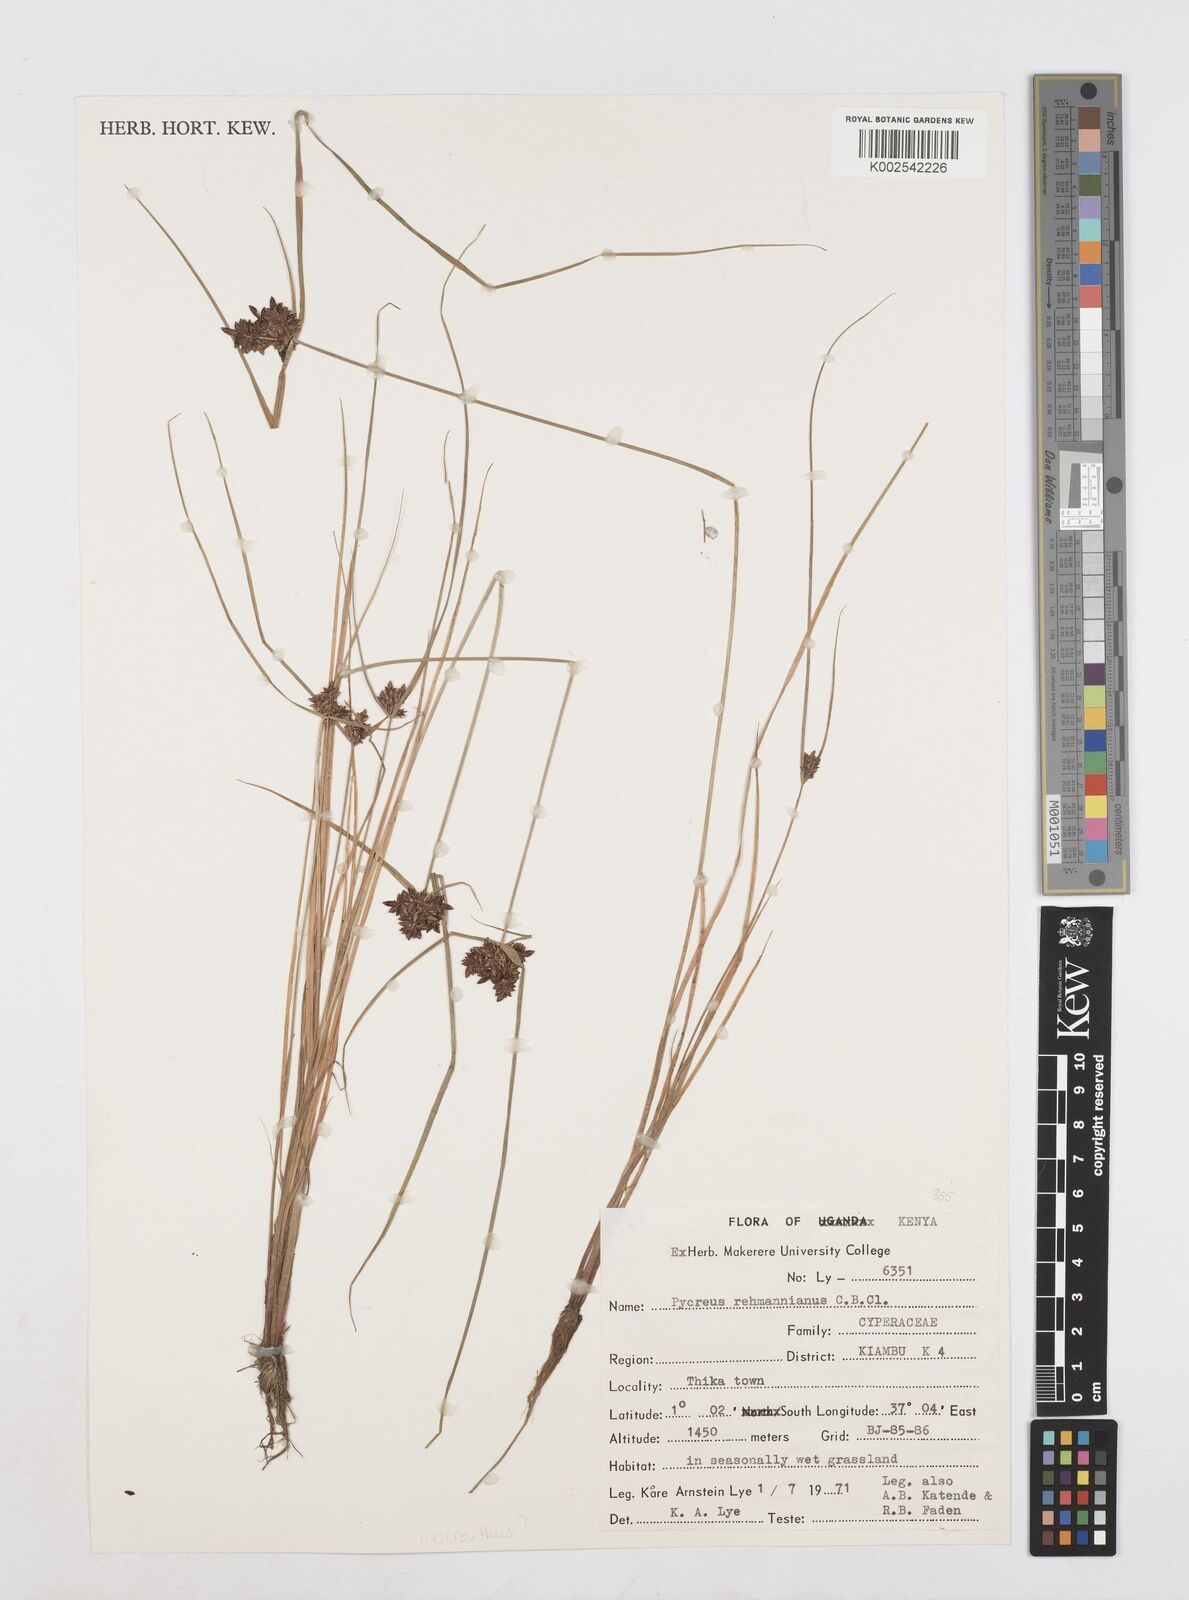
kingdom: Plantae
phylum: Tracheophyta
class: Liliopsida
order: Poales
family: Cyperaceae
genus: Cyperus
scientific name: Cyperus
